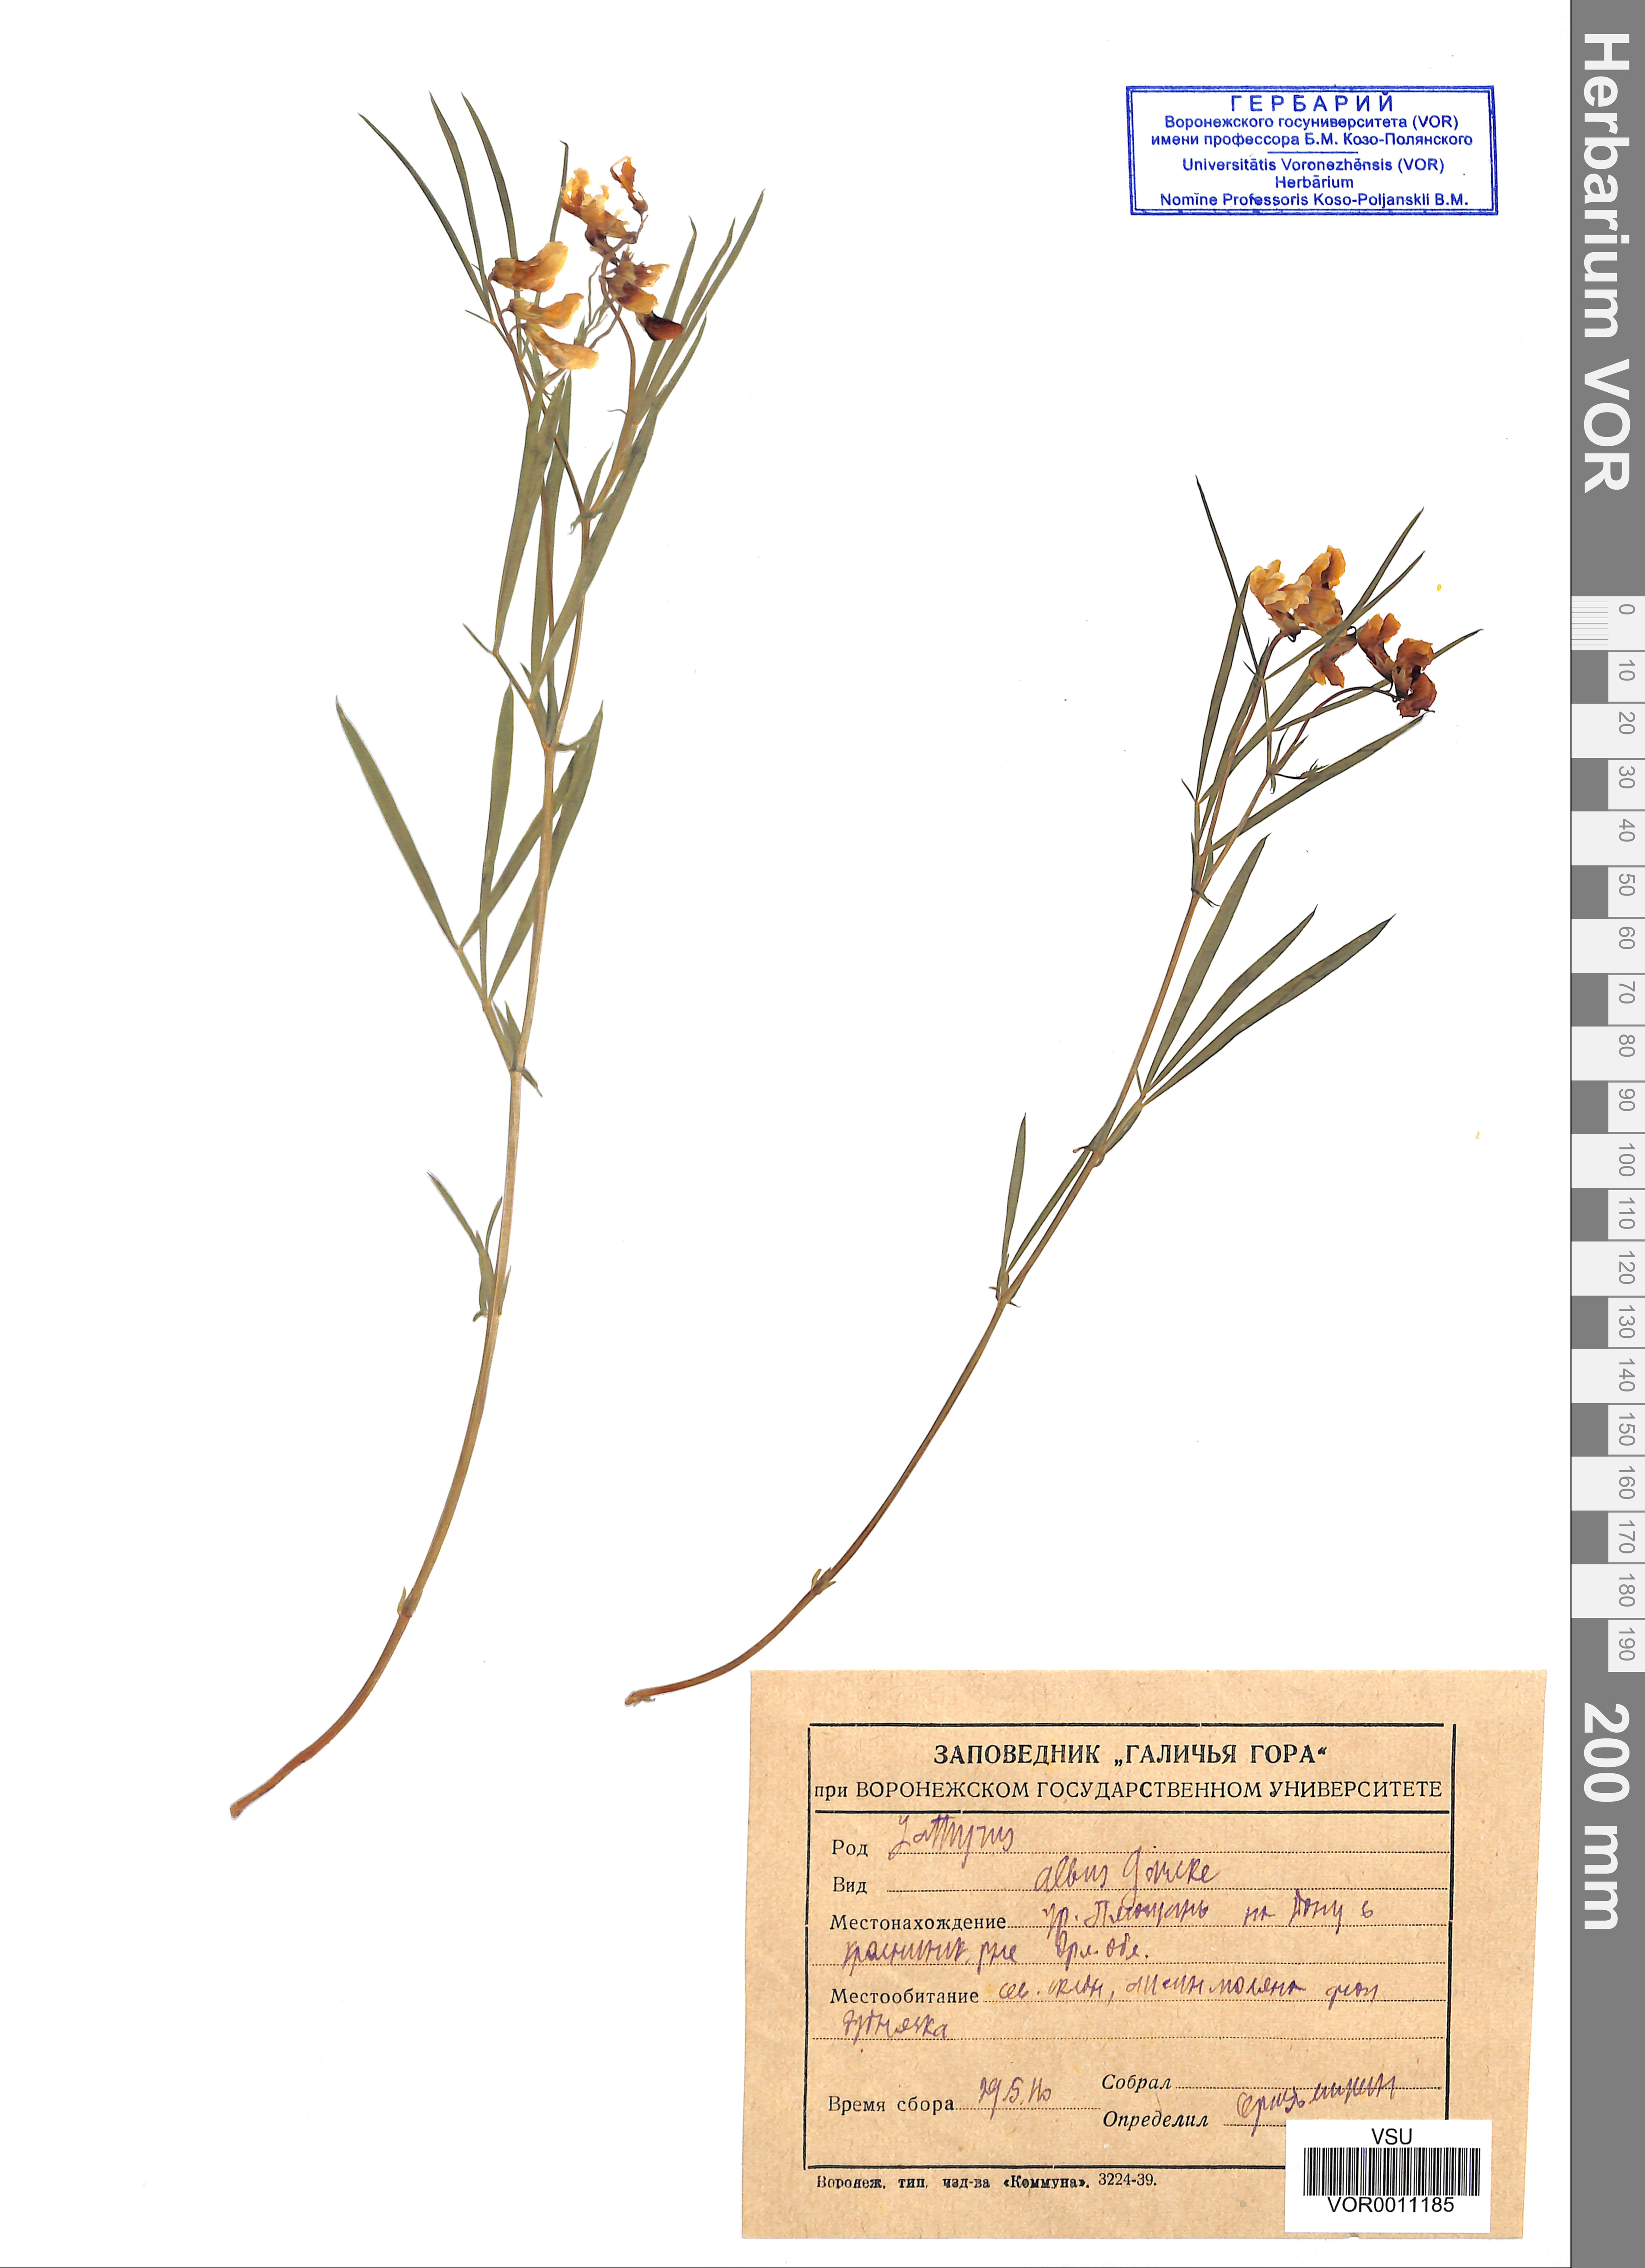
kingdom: Plantae
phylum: Tracheophyta
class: Magnoliopsida
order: Fabales
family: Fabaceae
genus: Lathyrus
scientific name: Lathyrus pannonicus
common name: Pea
